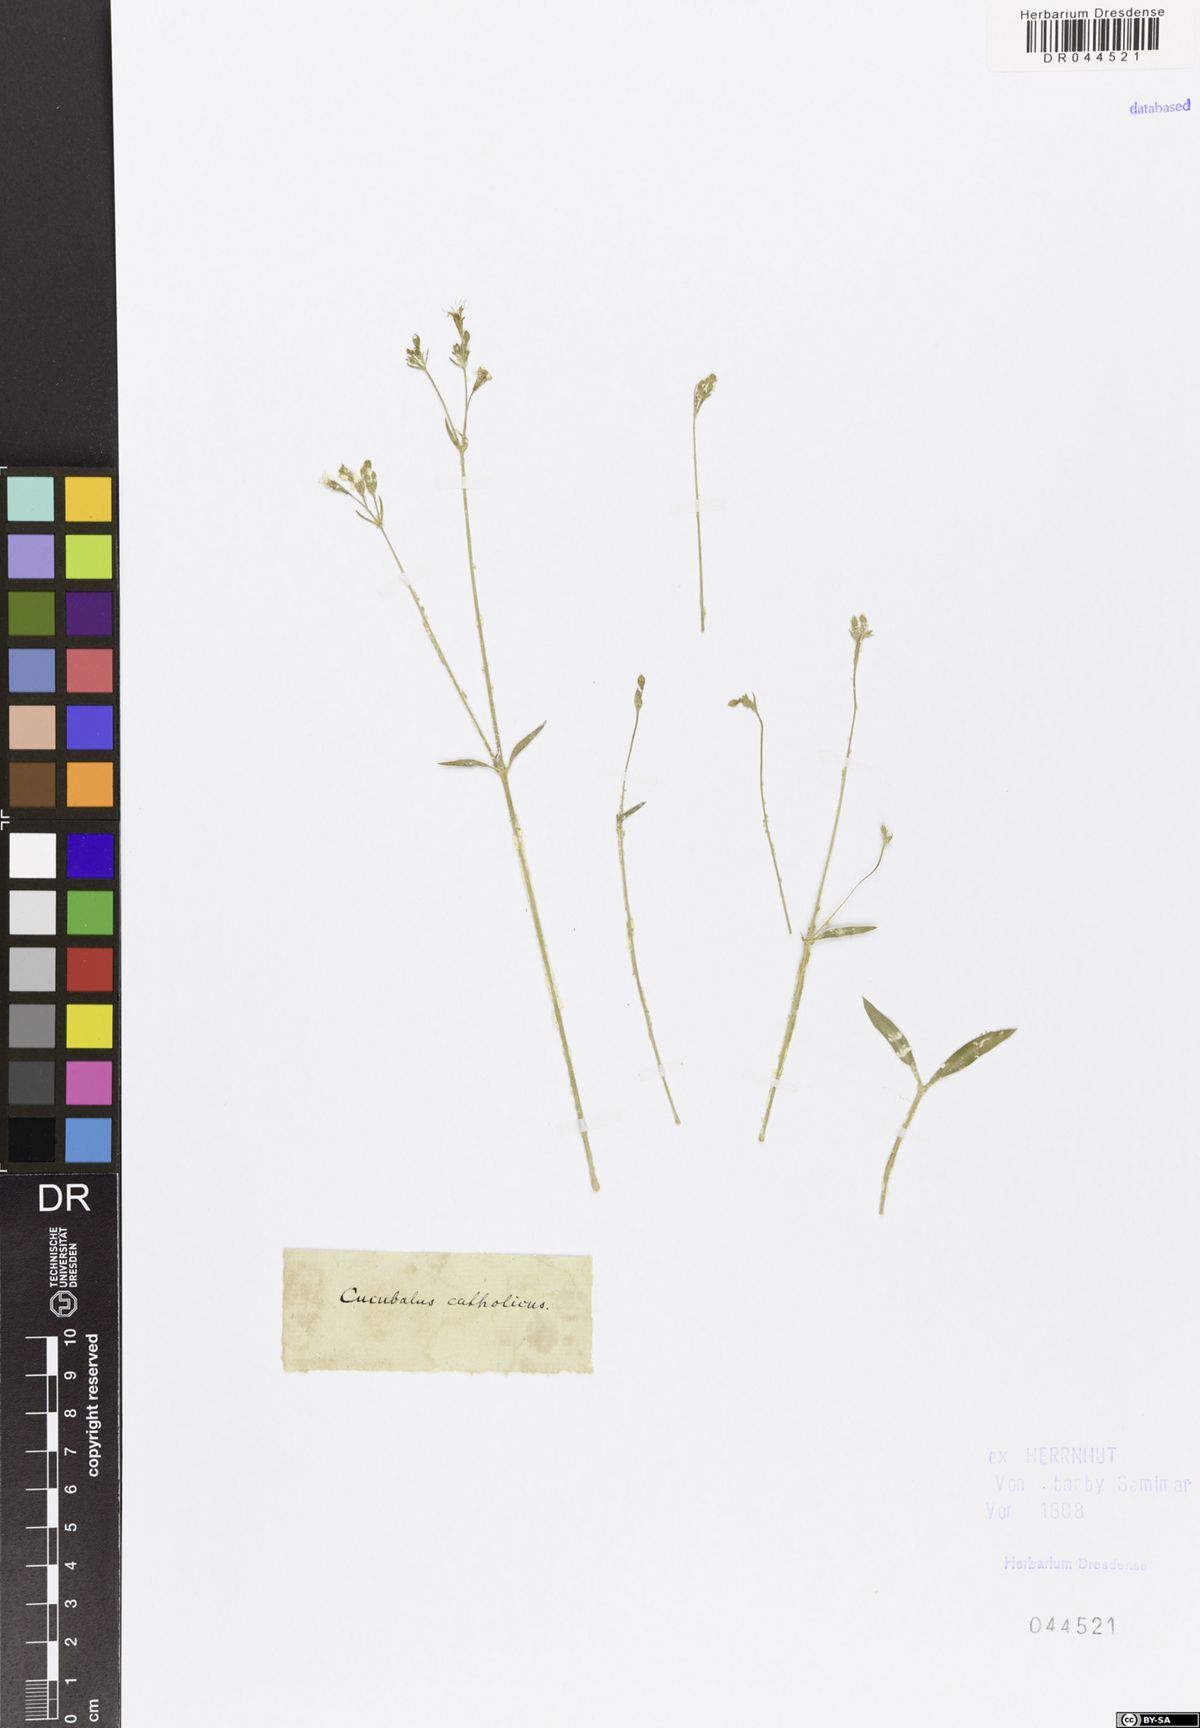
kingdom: Plantae
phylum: Tracheophyta
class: Magnoliopsida
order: Caryophyllales
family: Caryophyllaceae
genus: Silene
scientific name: Silene catholica
